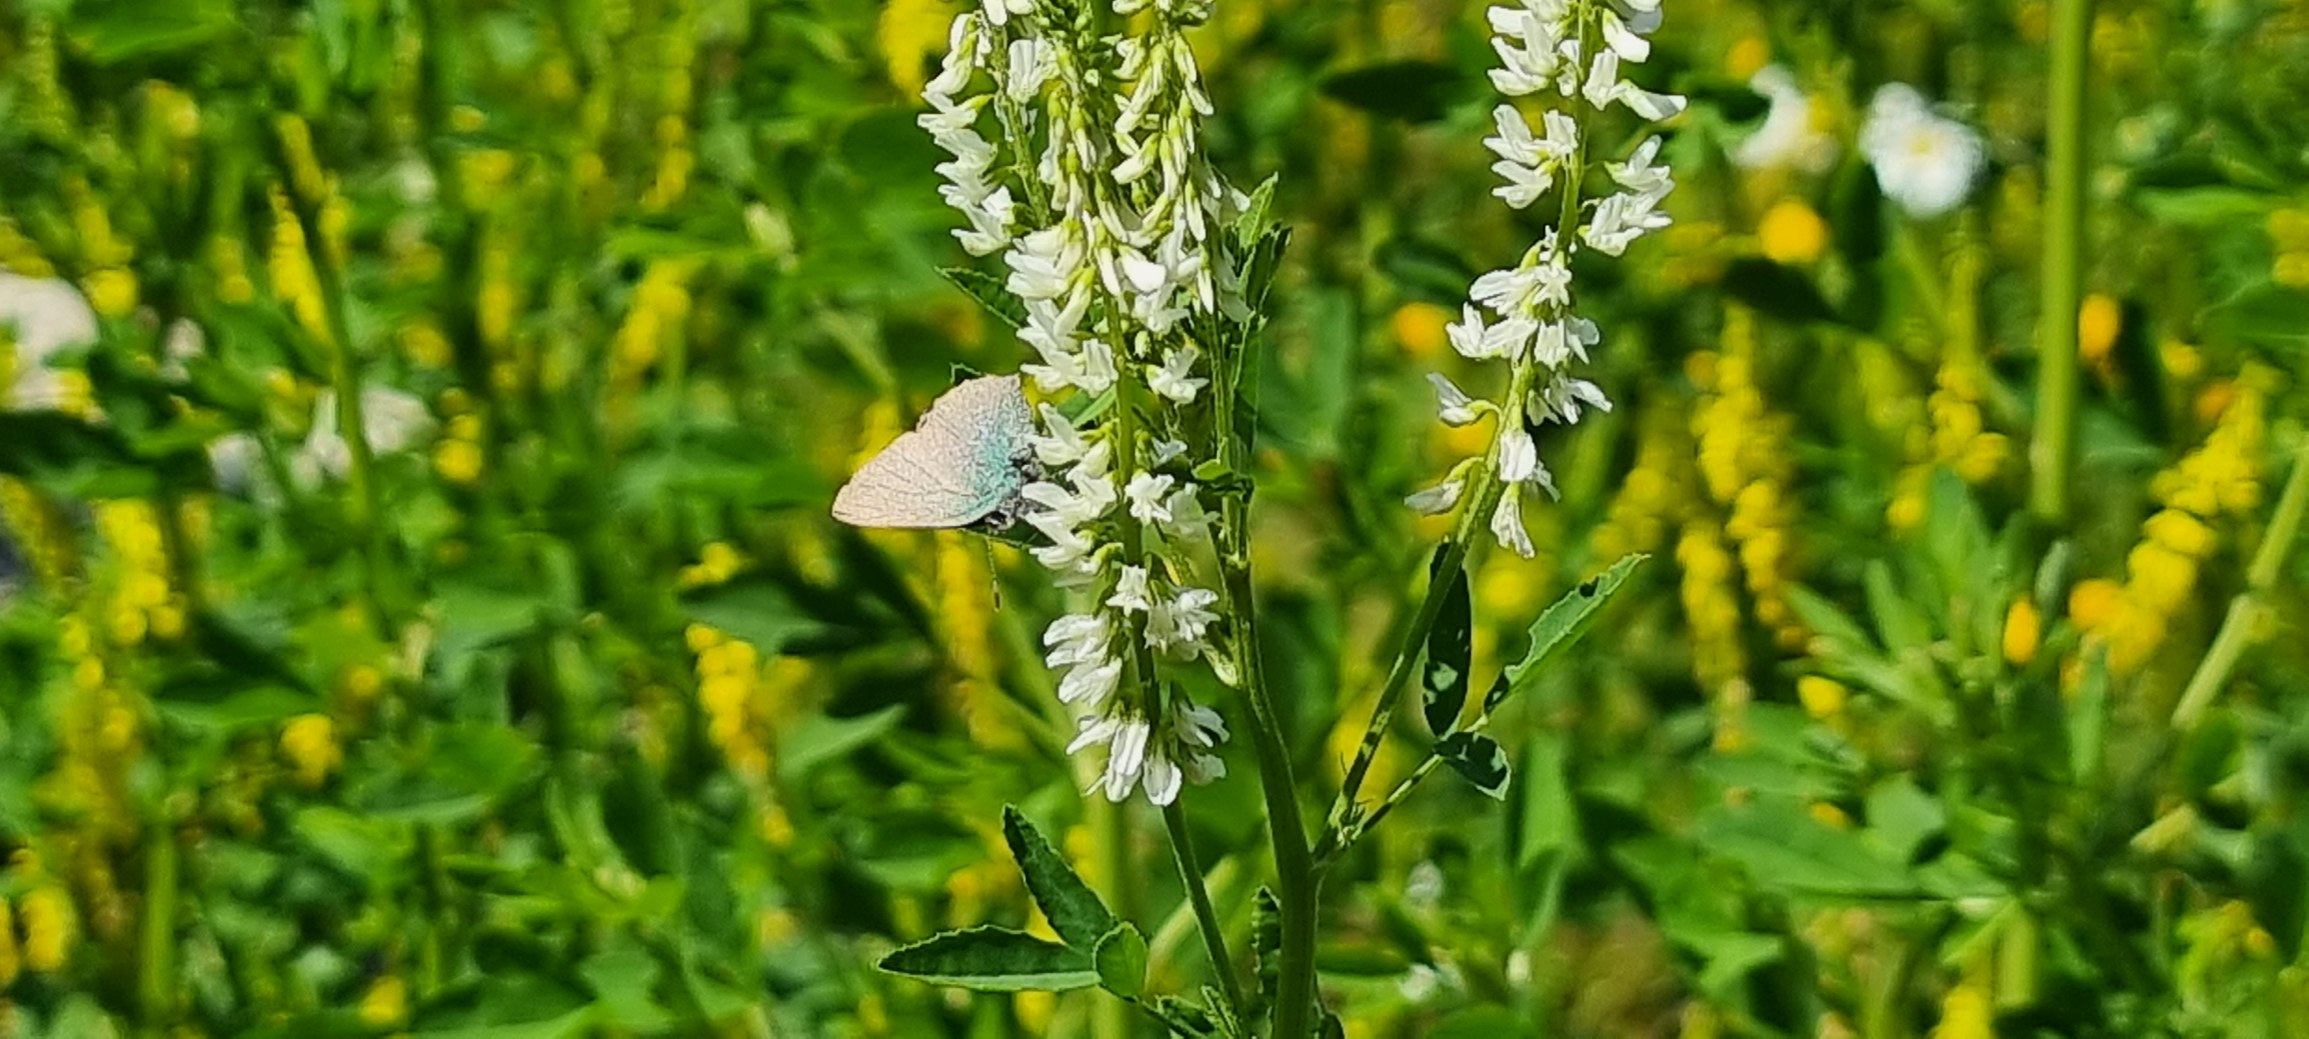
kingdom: Animalia
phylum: Arthropoda
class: Insecta
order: Lepidoptera
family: Lycaenidae
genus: Callophrys
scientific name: Callophrys rubi
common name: Grøn busksommerfugl
